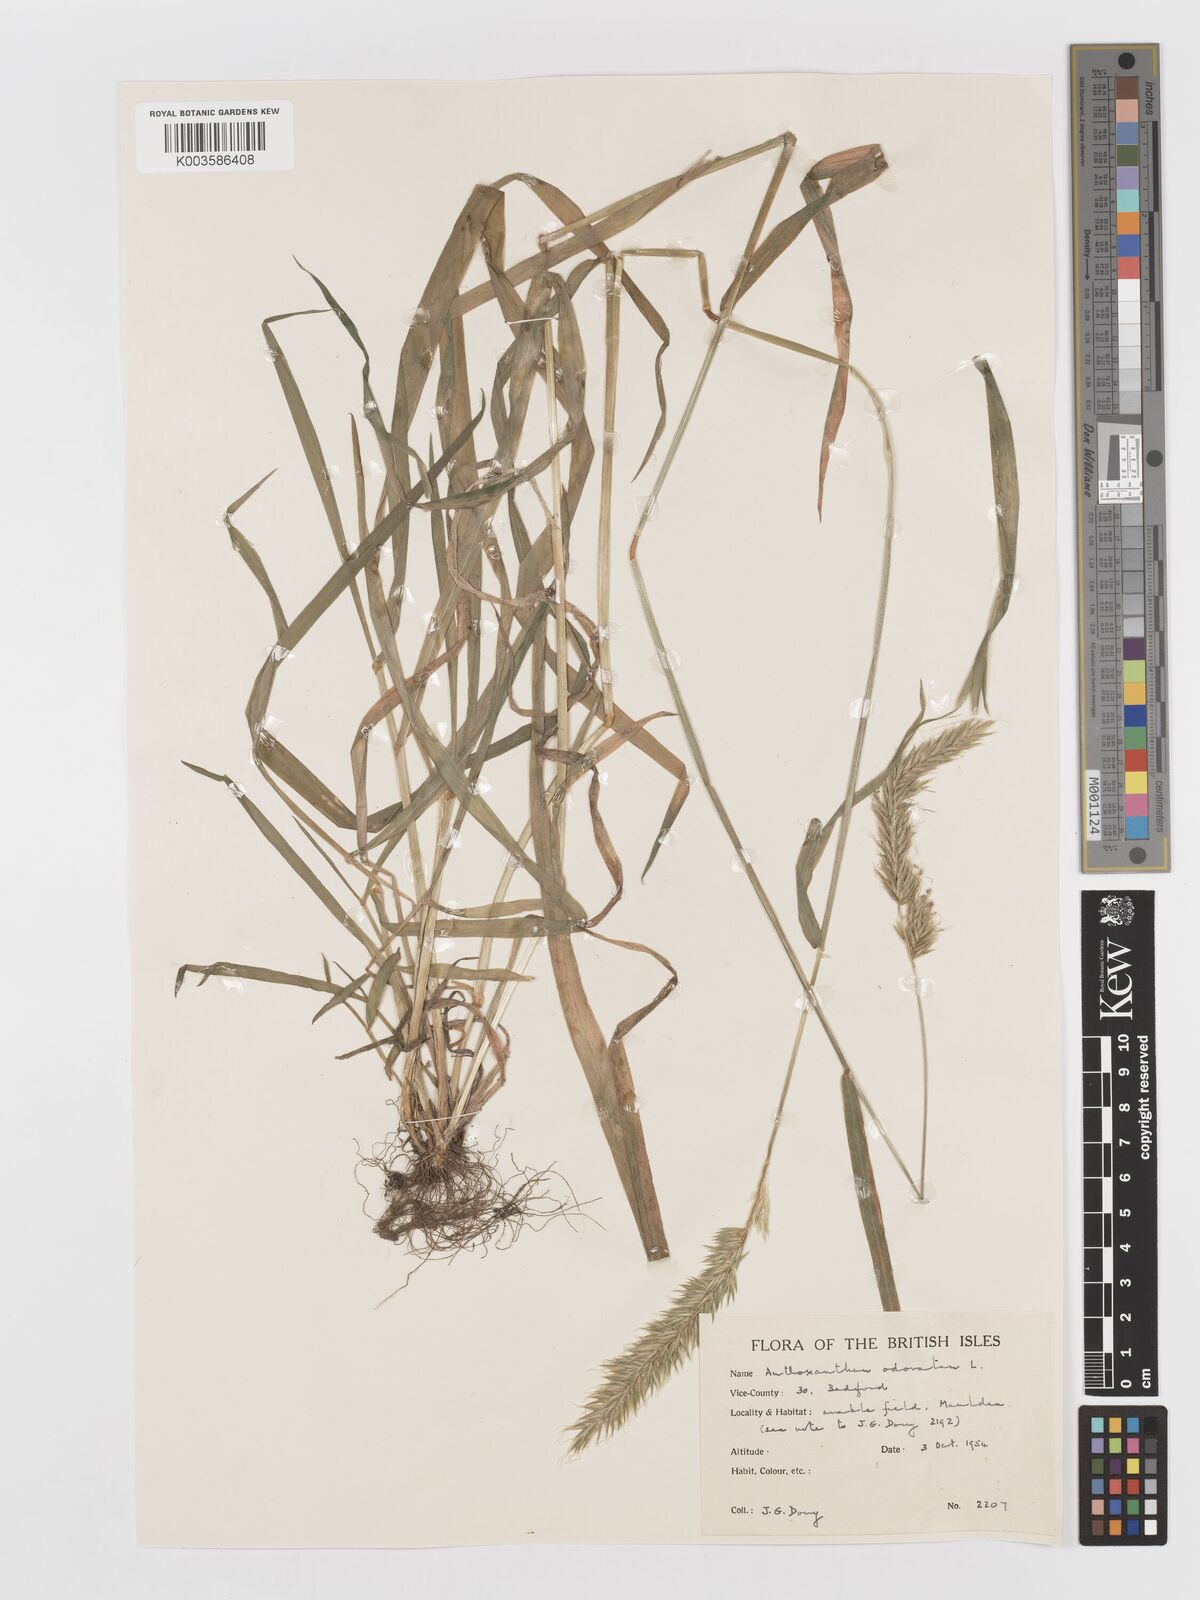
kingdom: Plantae
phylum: Tracheophyta
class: Liliopsida
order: Poales
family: Poaceae
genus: Anthoxanthum
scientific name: Anthoxanthum odoratum
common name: Sweet vernalgrass
